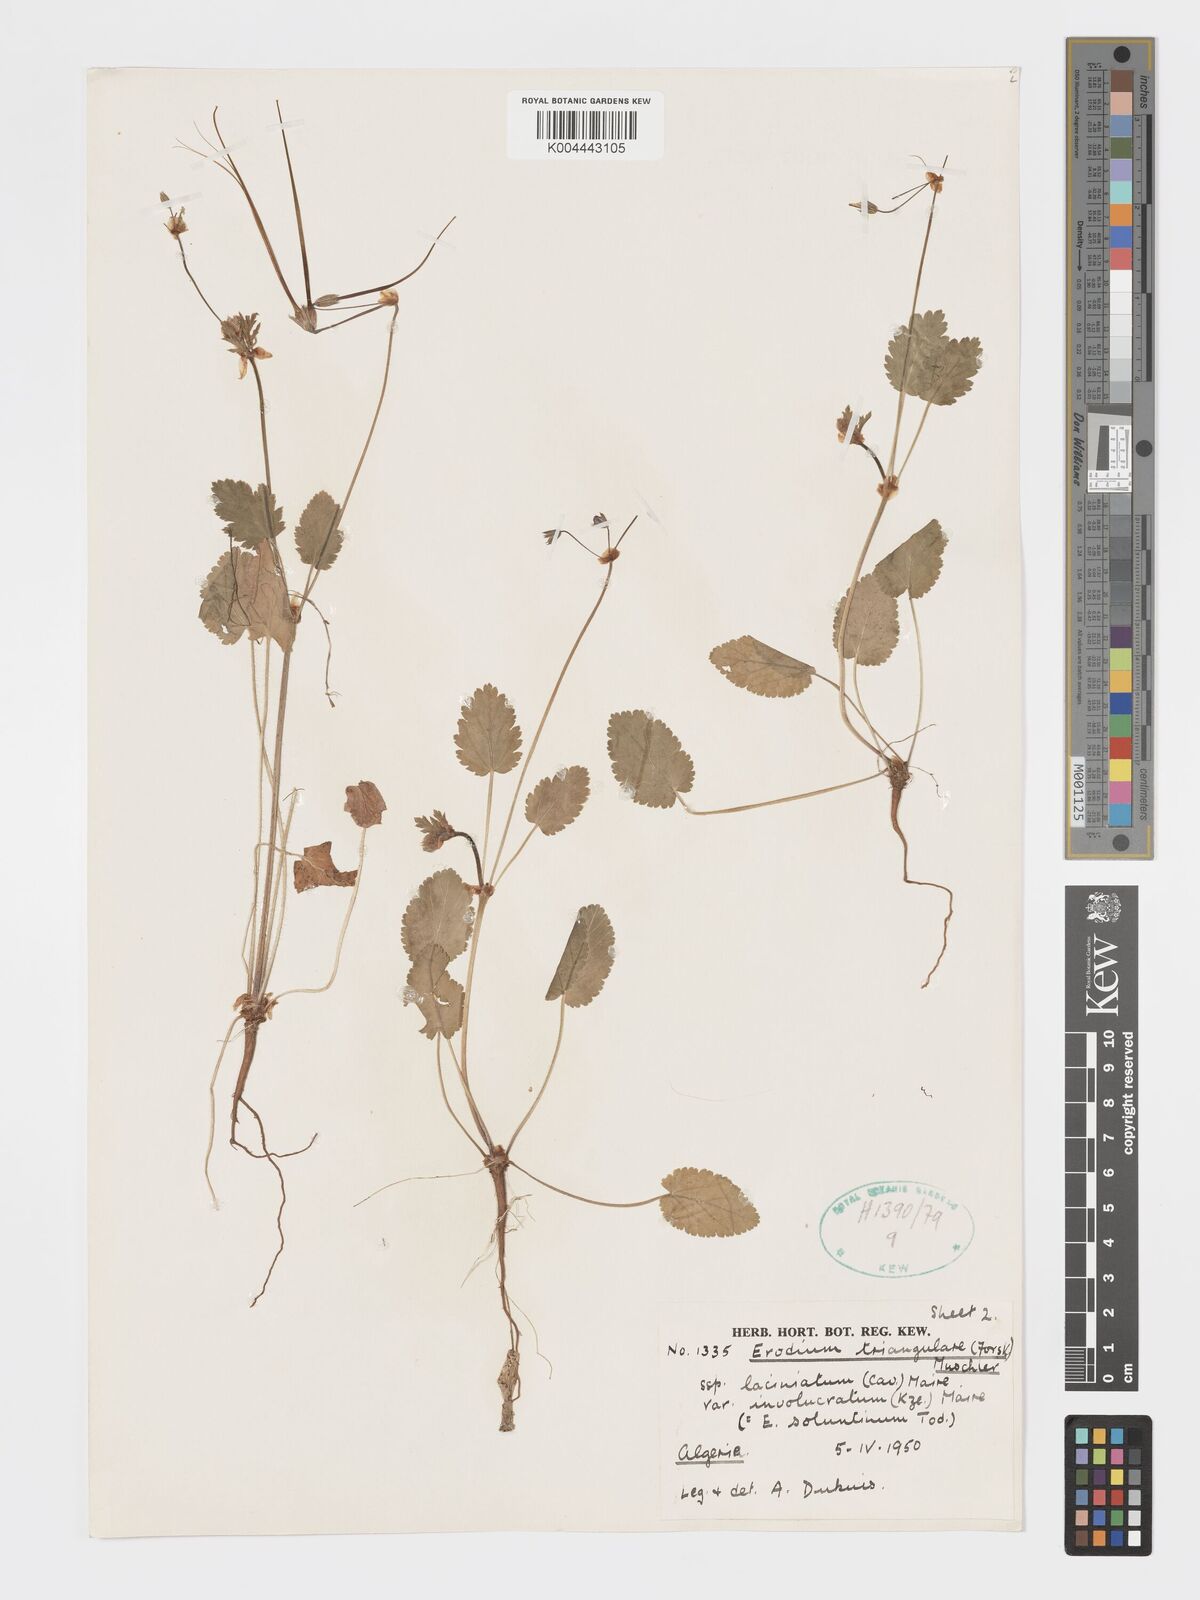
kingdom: Plantae
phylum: Tracheophyta
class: Magnoliopsida
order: Geraniales
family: Geraniaceae
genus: Erodium
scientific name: Erodium laciniatum
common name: Cutleaf stork's bill
